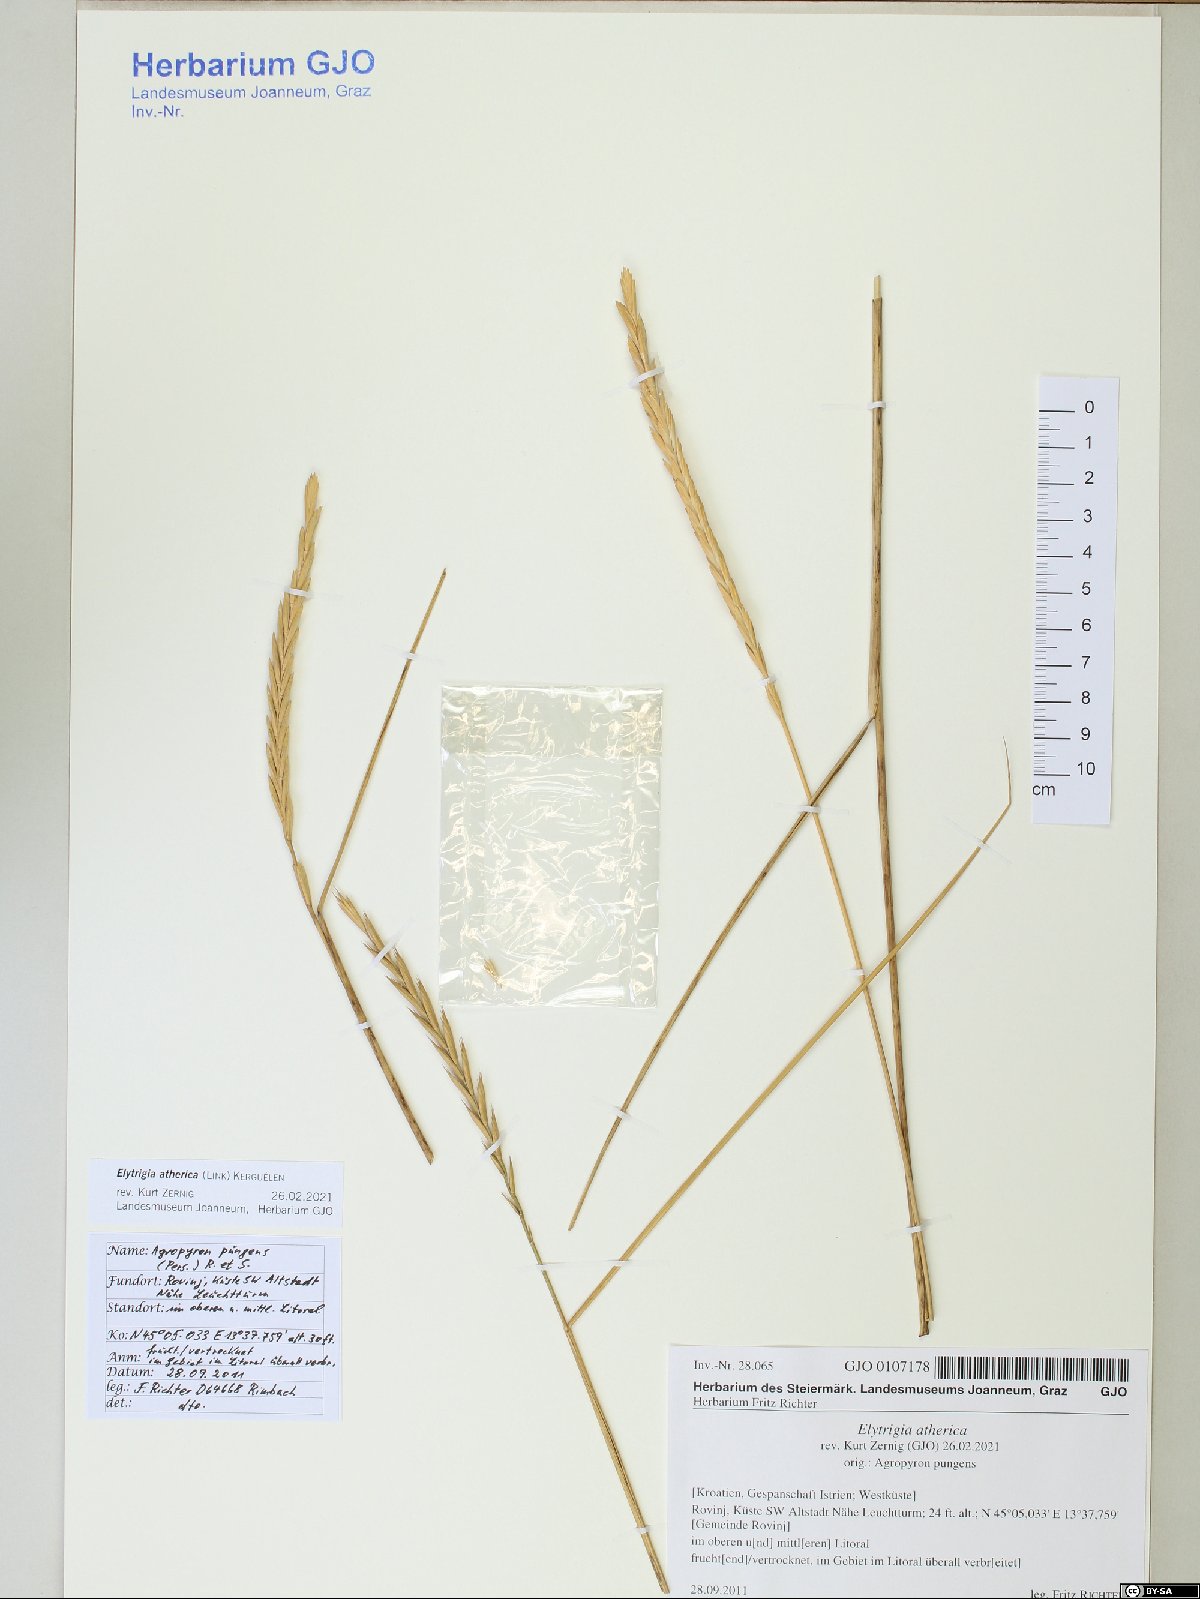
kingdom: Plantae
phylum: Tracheophyta
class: Liliopsida
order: Poales
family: Poaceae
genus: Elymus
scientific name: Elymus athericus
